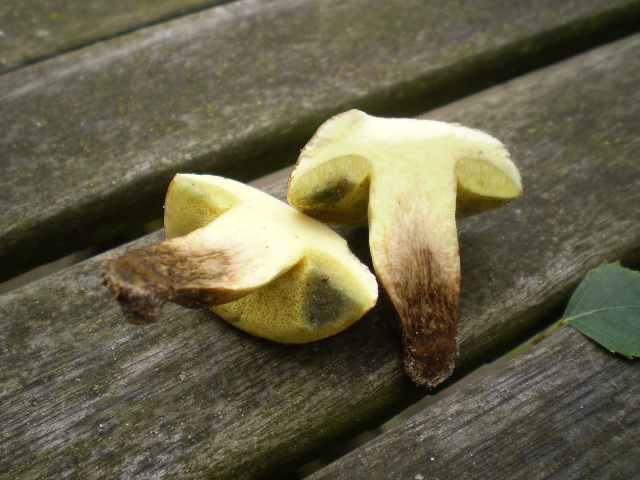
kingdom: Fungi
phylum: Basidiomycota
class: Agaricomycetes
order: Boletales
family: Boletaceae
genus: Xerocomus
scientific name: Xerocomus subtomentosus
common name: filtet rørhat
